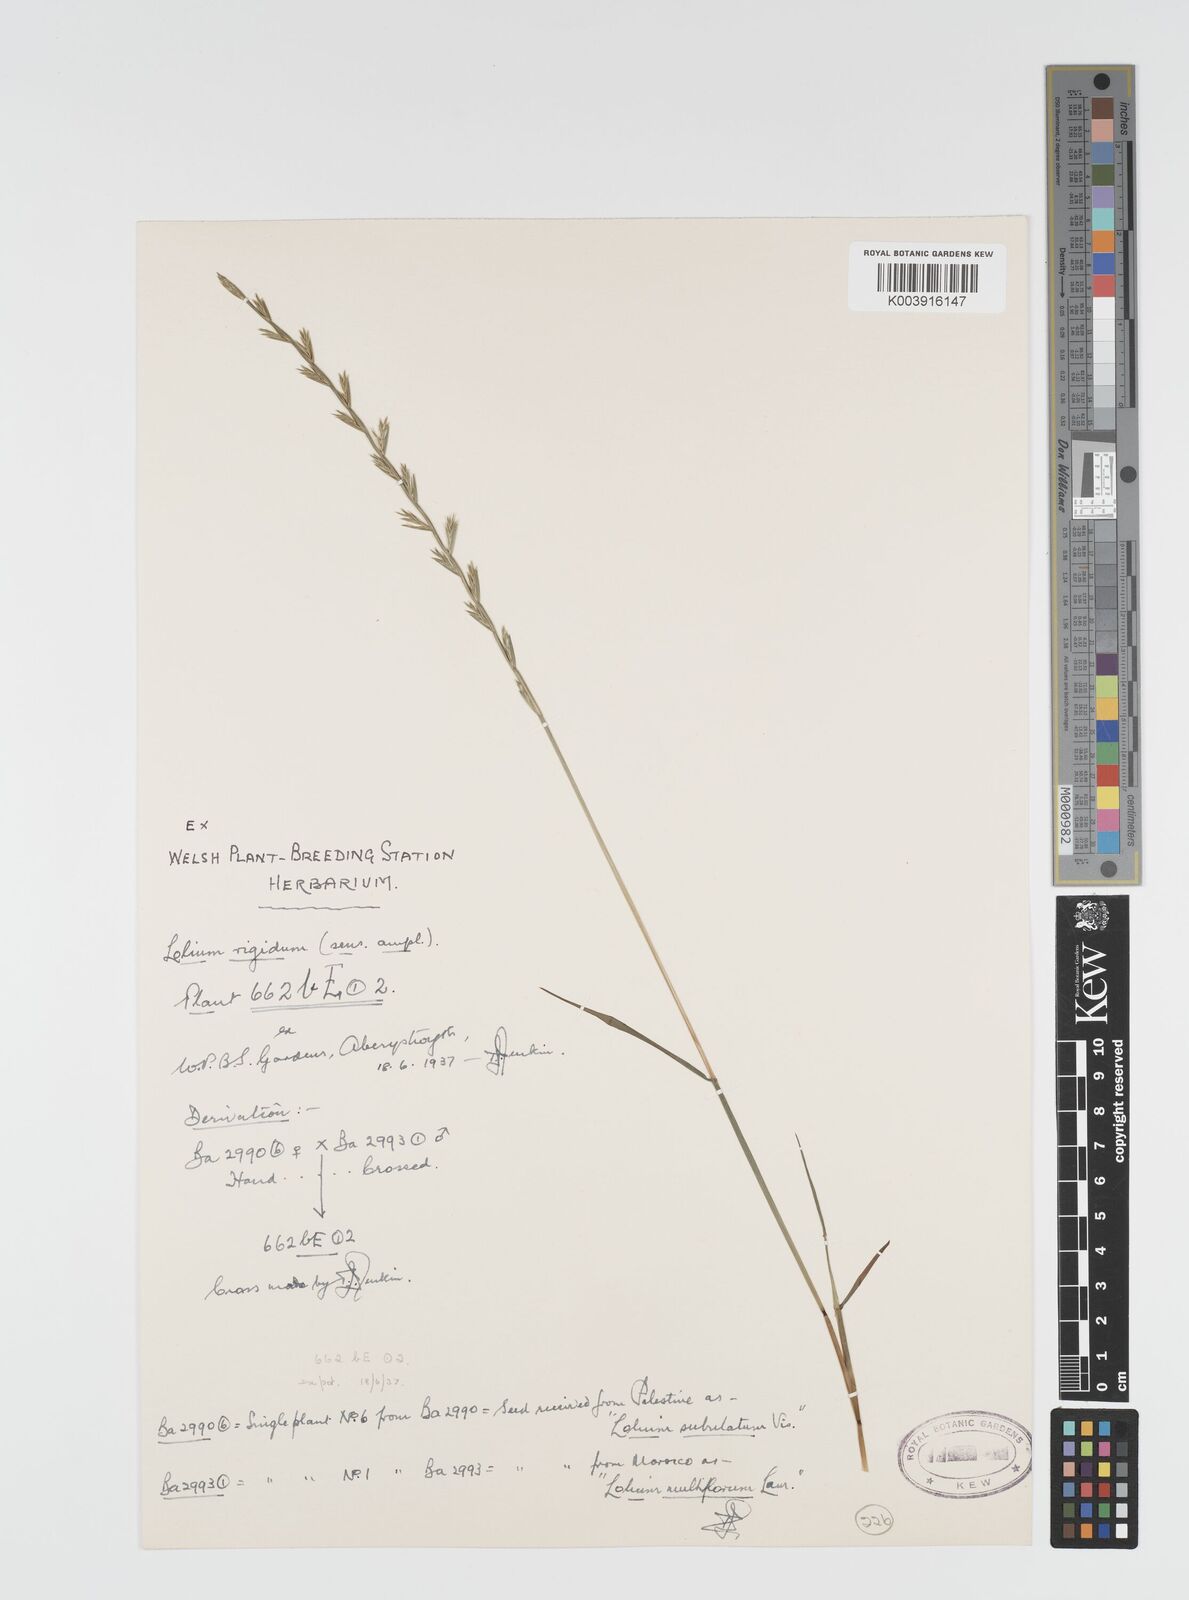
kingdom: Plantae
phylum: Tracheophyta
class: Liliopsida
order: Poales
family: Poaceae
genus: Lolium
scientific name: Lolium rigidum
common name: Wimmera ryegrass
